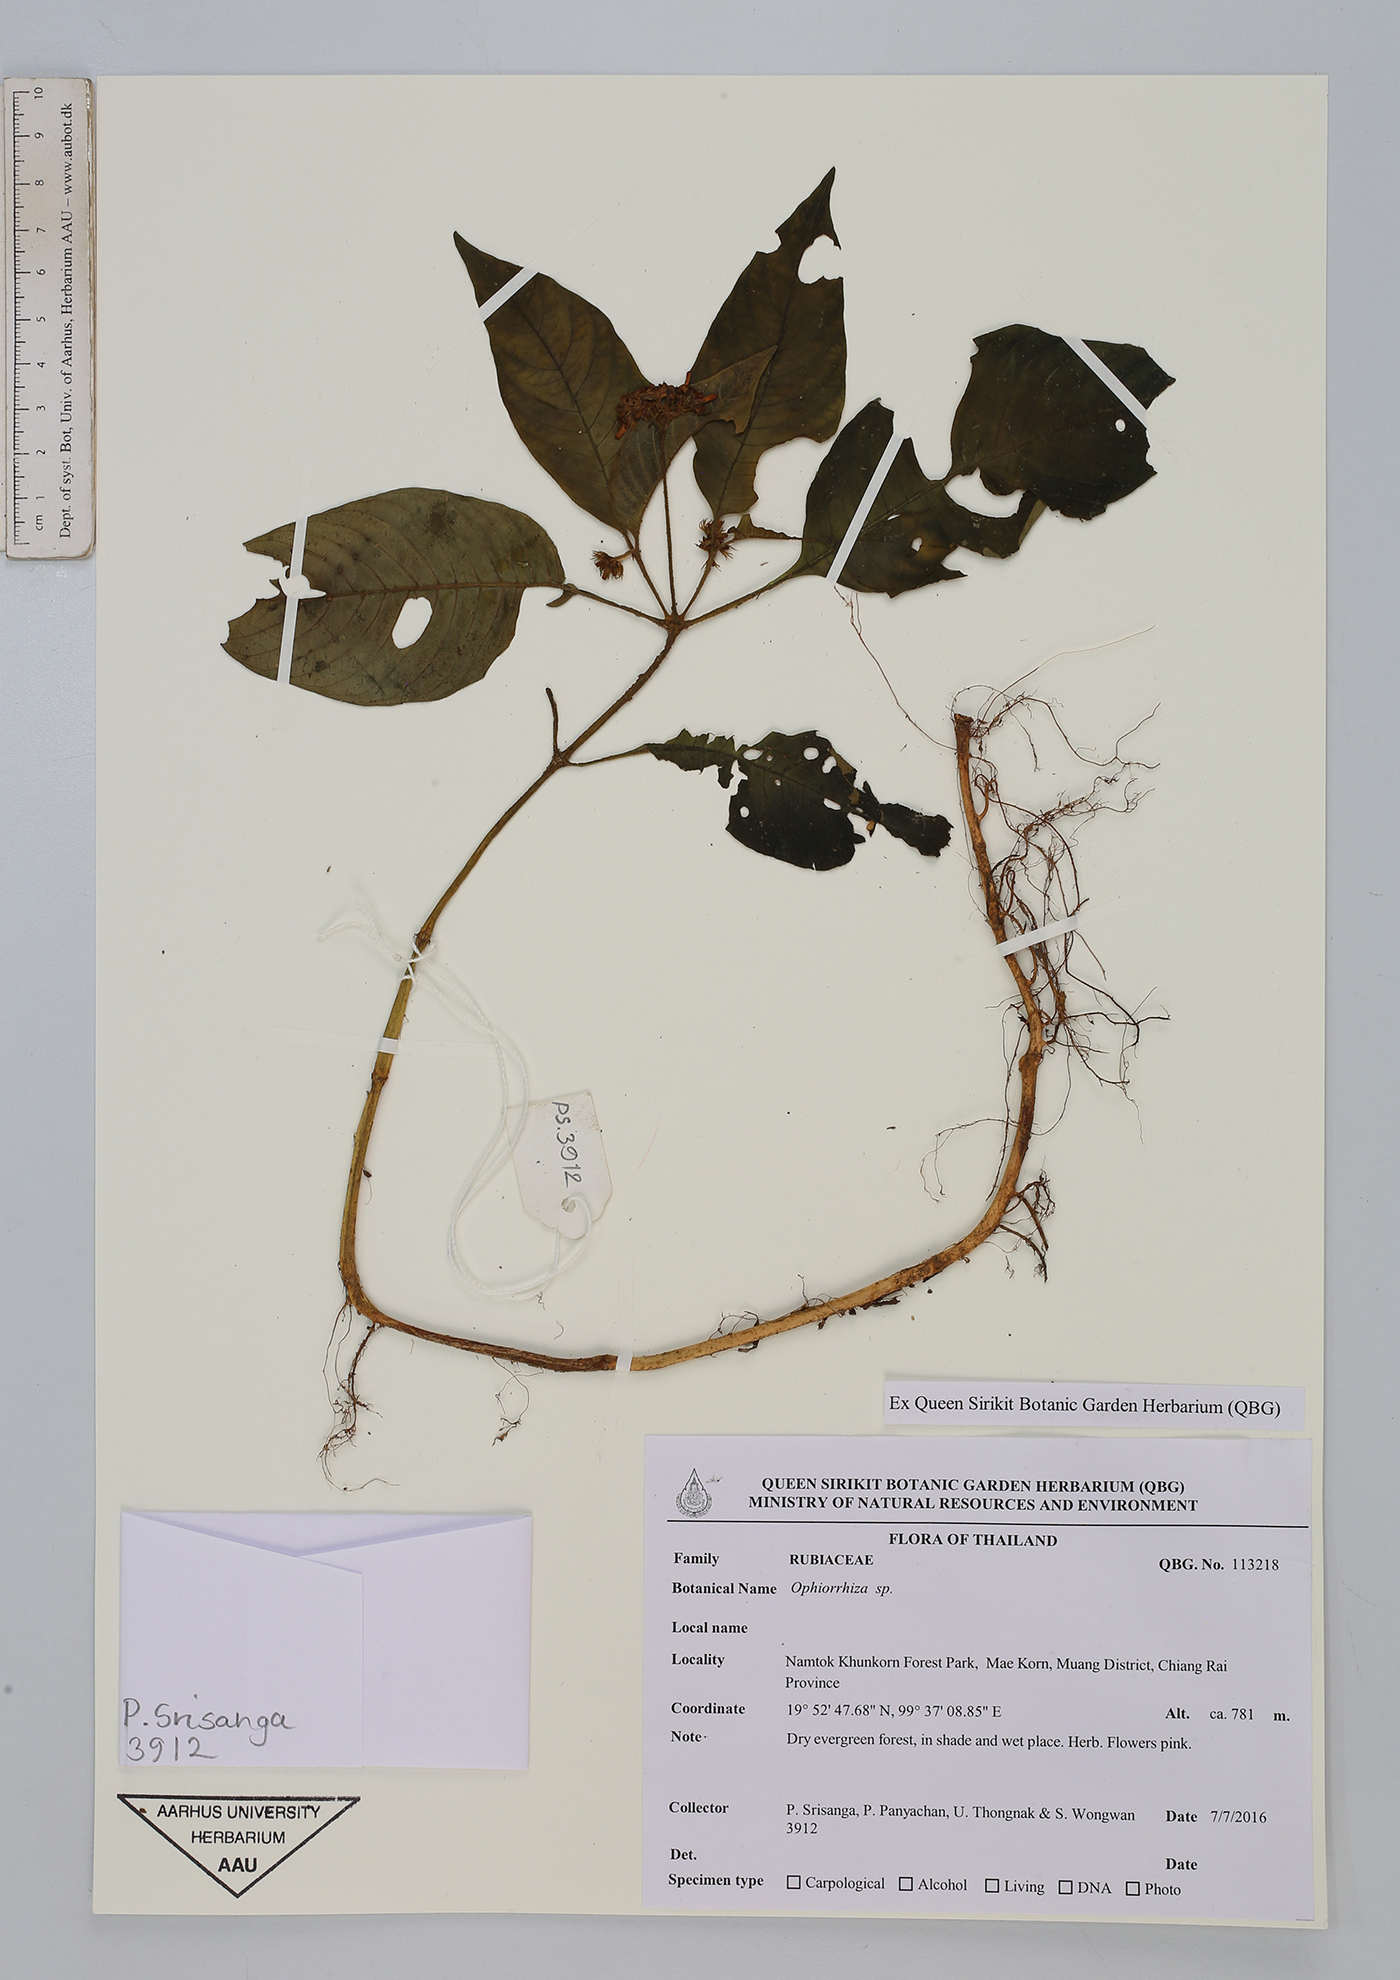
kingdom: Plantae
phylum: Tracheophyta
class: Magnoliopsida
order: Gentianales
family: Rubiaceae
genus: Ophiorrhiza
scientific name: Ophiorrhiza
